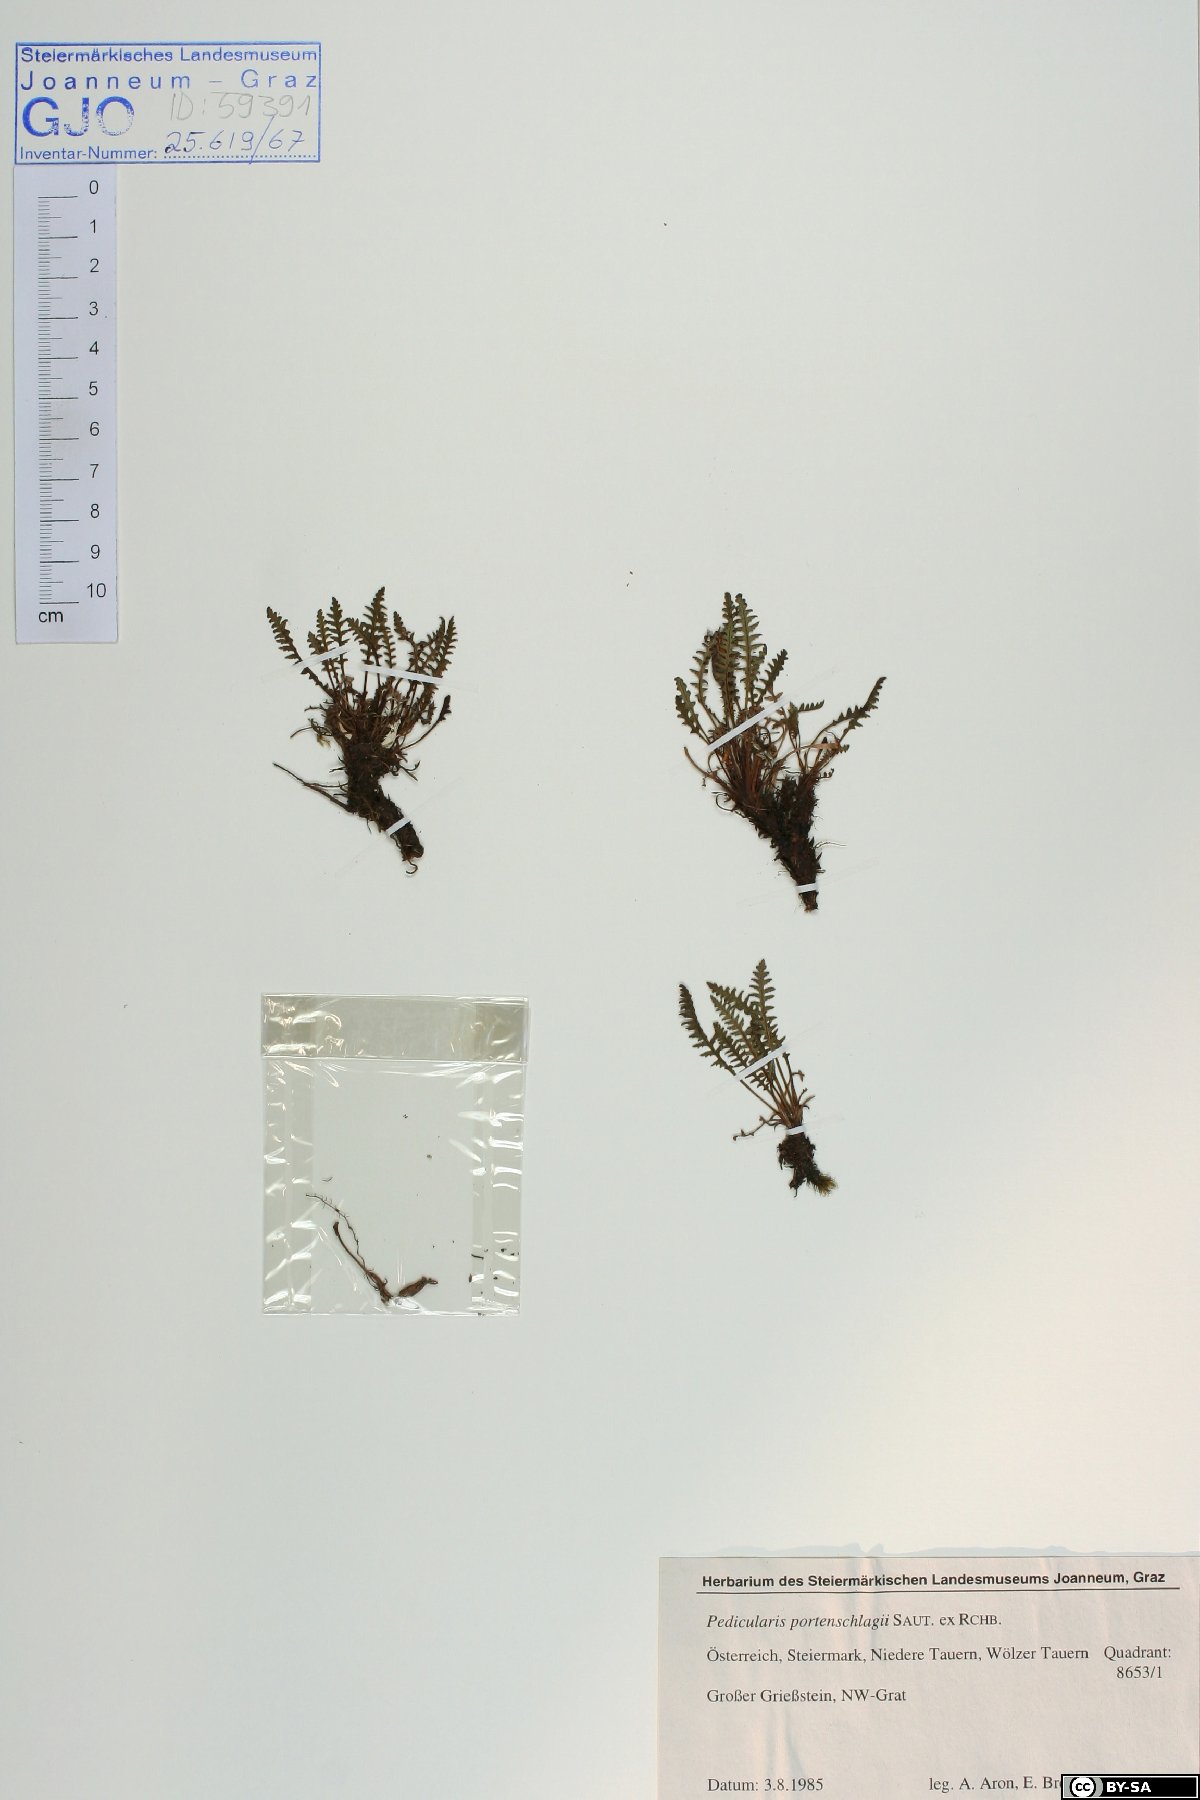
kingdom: Plantae
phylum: Tracheophyta
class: Magnoliopsida
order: Lamiales
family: Orobanchaceae
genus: Pedicularis
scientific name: Pedicularis portenschlagii
